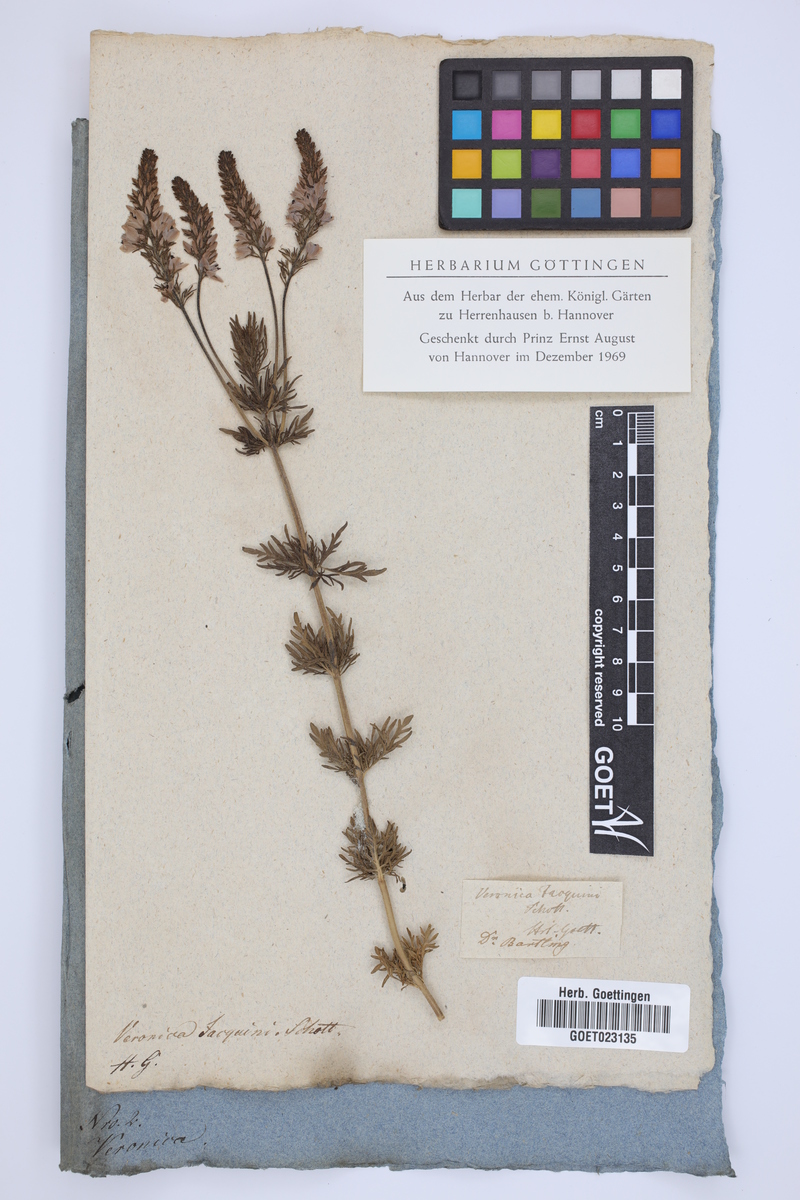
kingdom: Plantae
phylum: Tracheophyta
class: Magnoliopsida
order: Lamiales
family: Plantaginaceae
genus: Veronica
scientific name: Veronica austriaca
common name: Large speedwell
